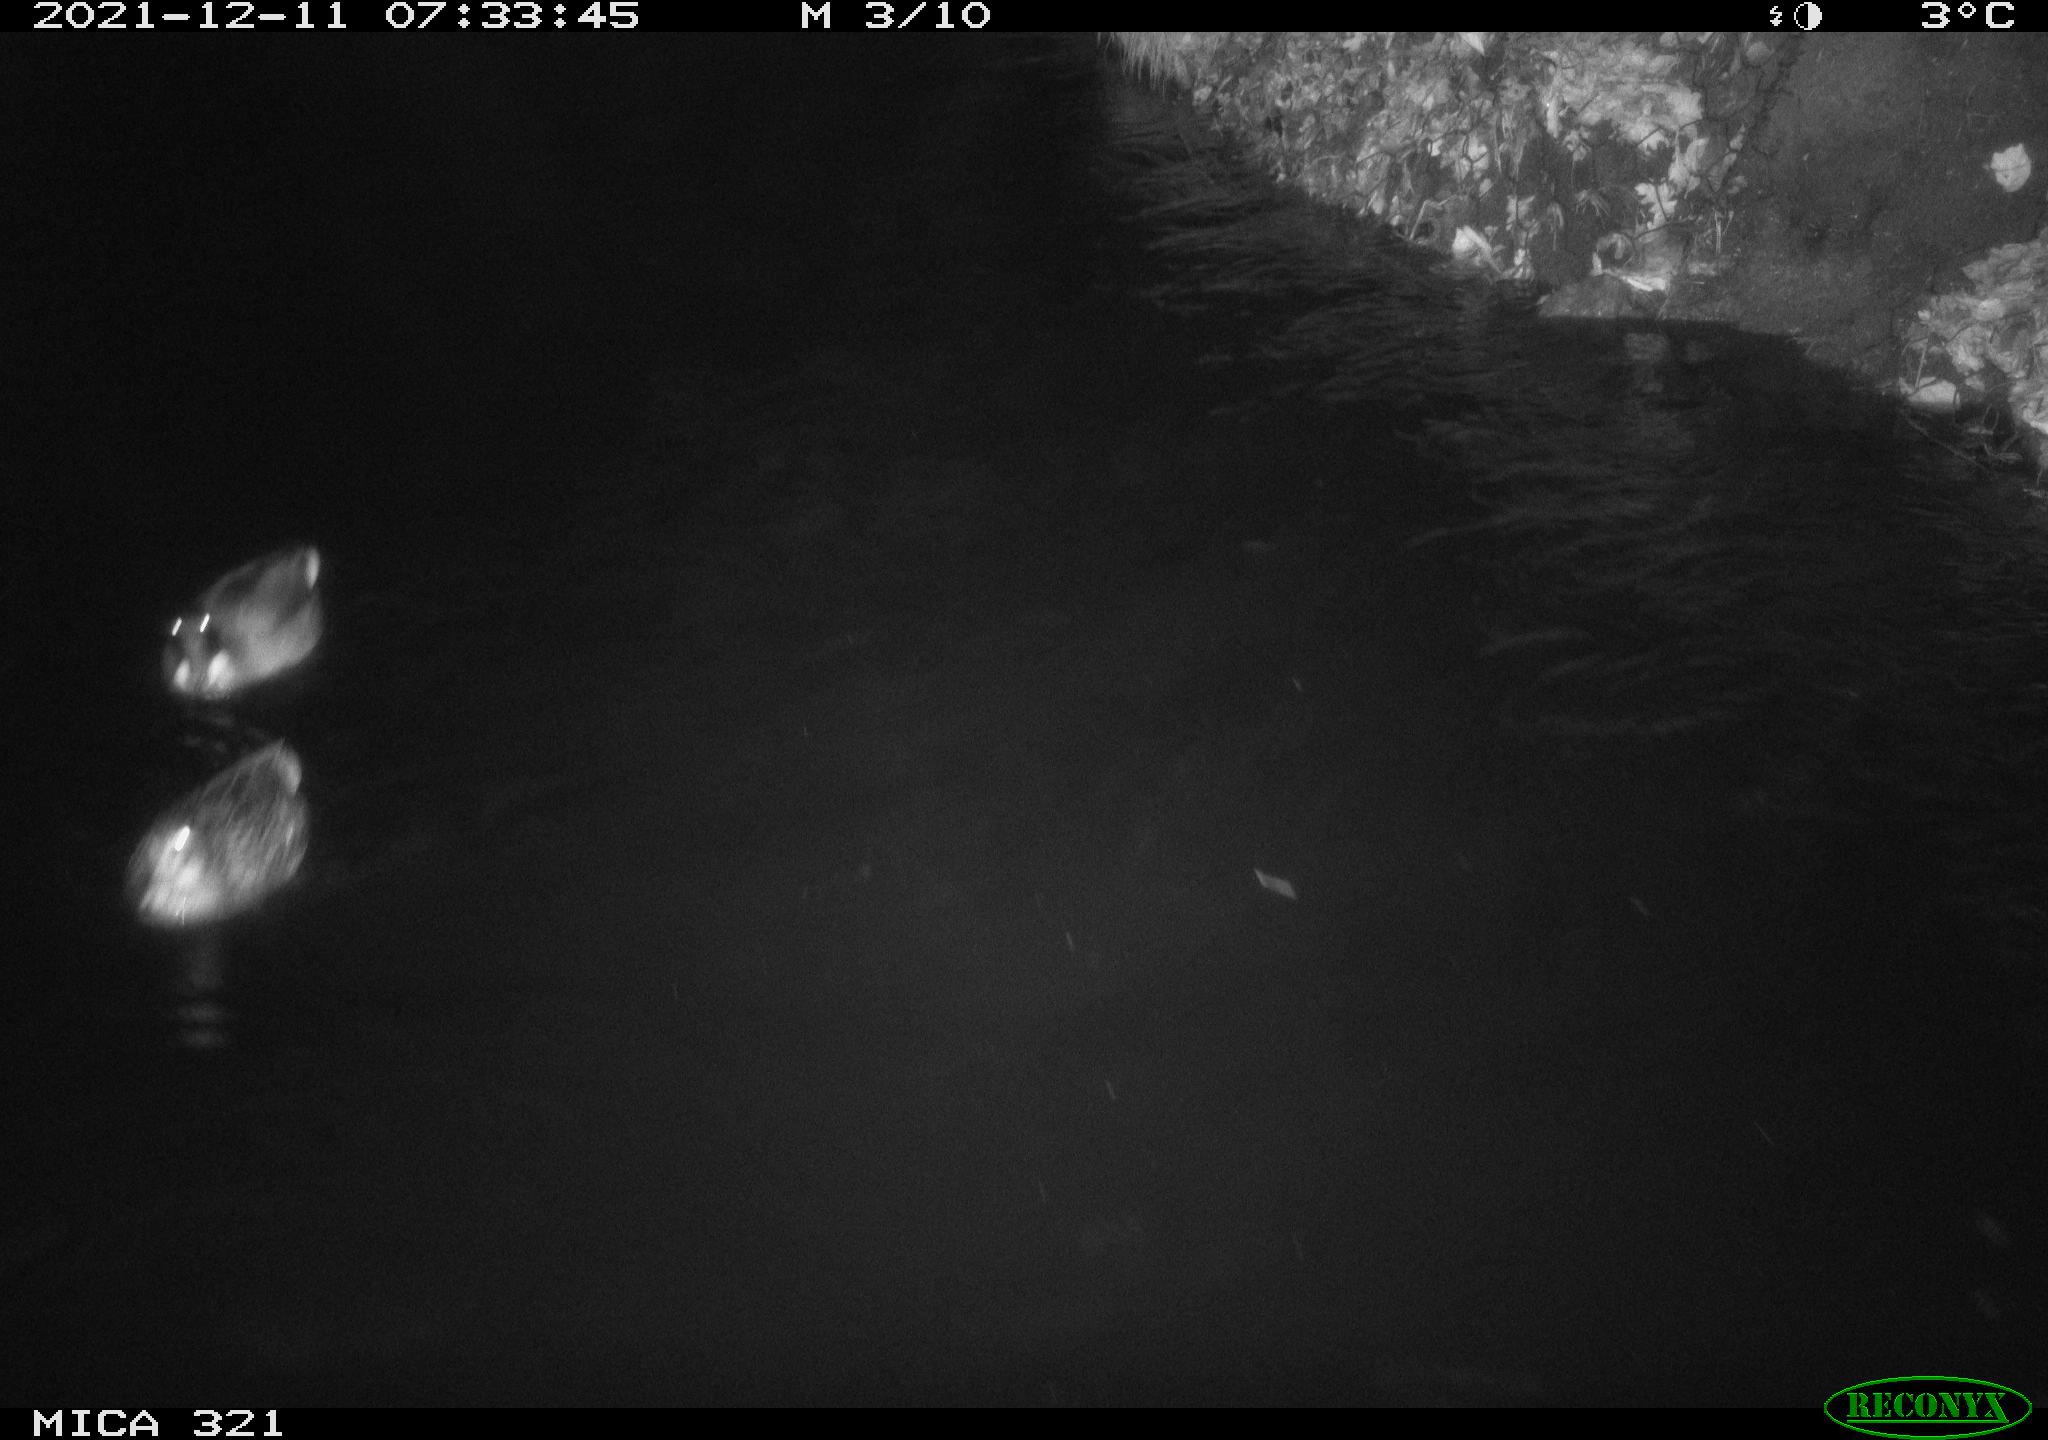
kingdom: Animalia
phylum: Chordata
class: Aves
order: Anseriformes
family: Anatidae
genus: Anas
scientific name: Anas platyrhynchos
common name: Mallard
